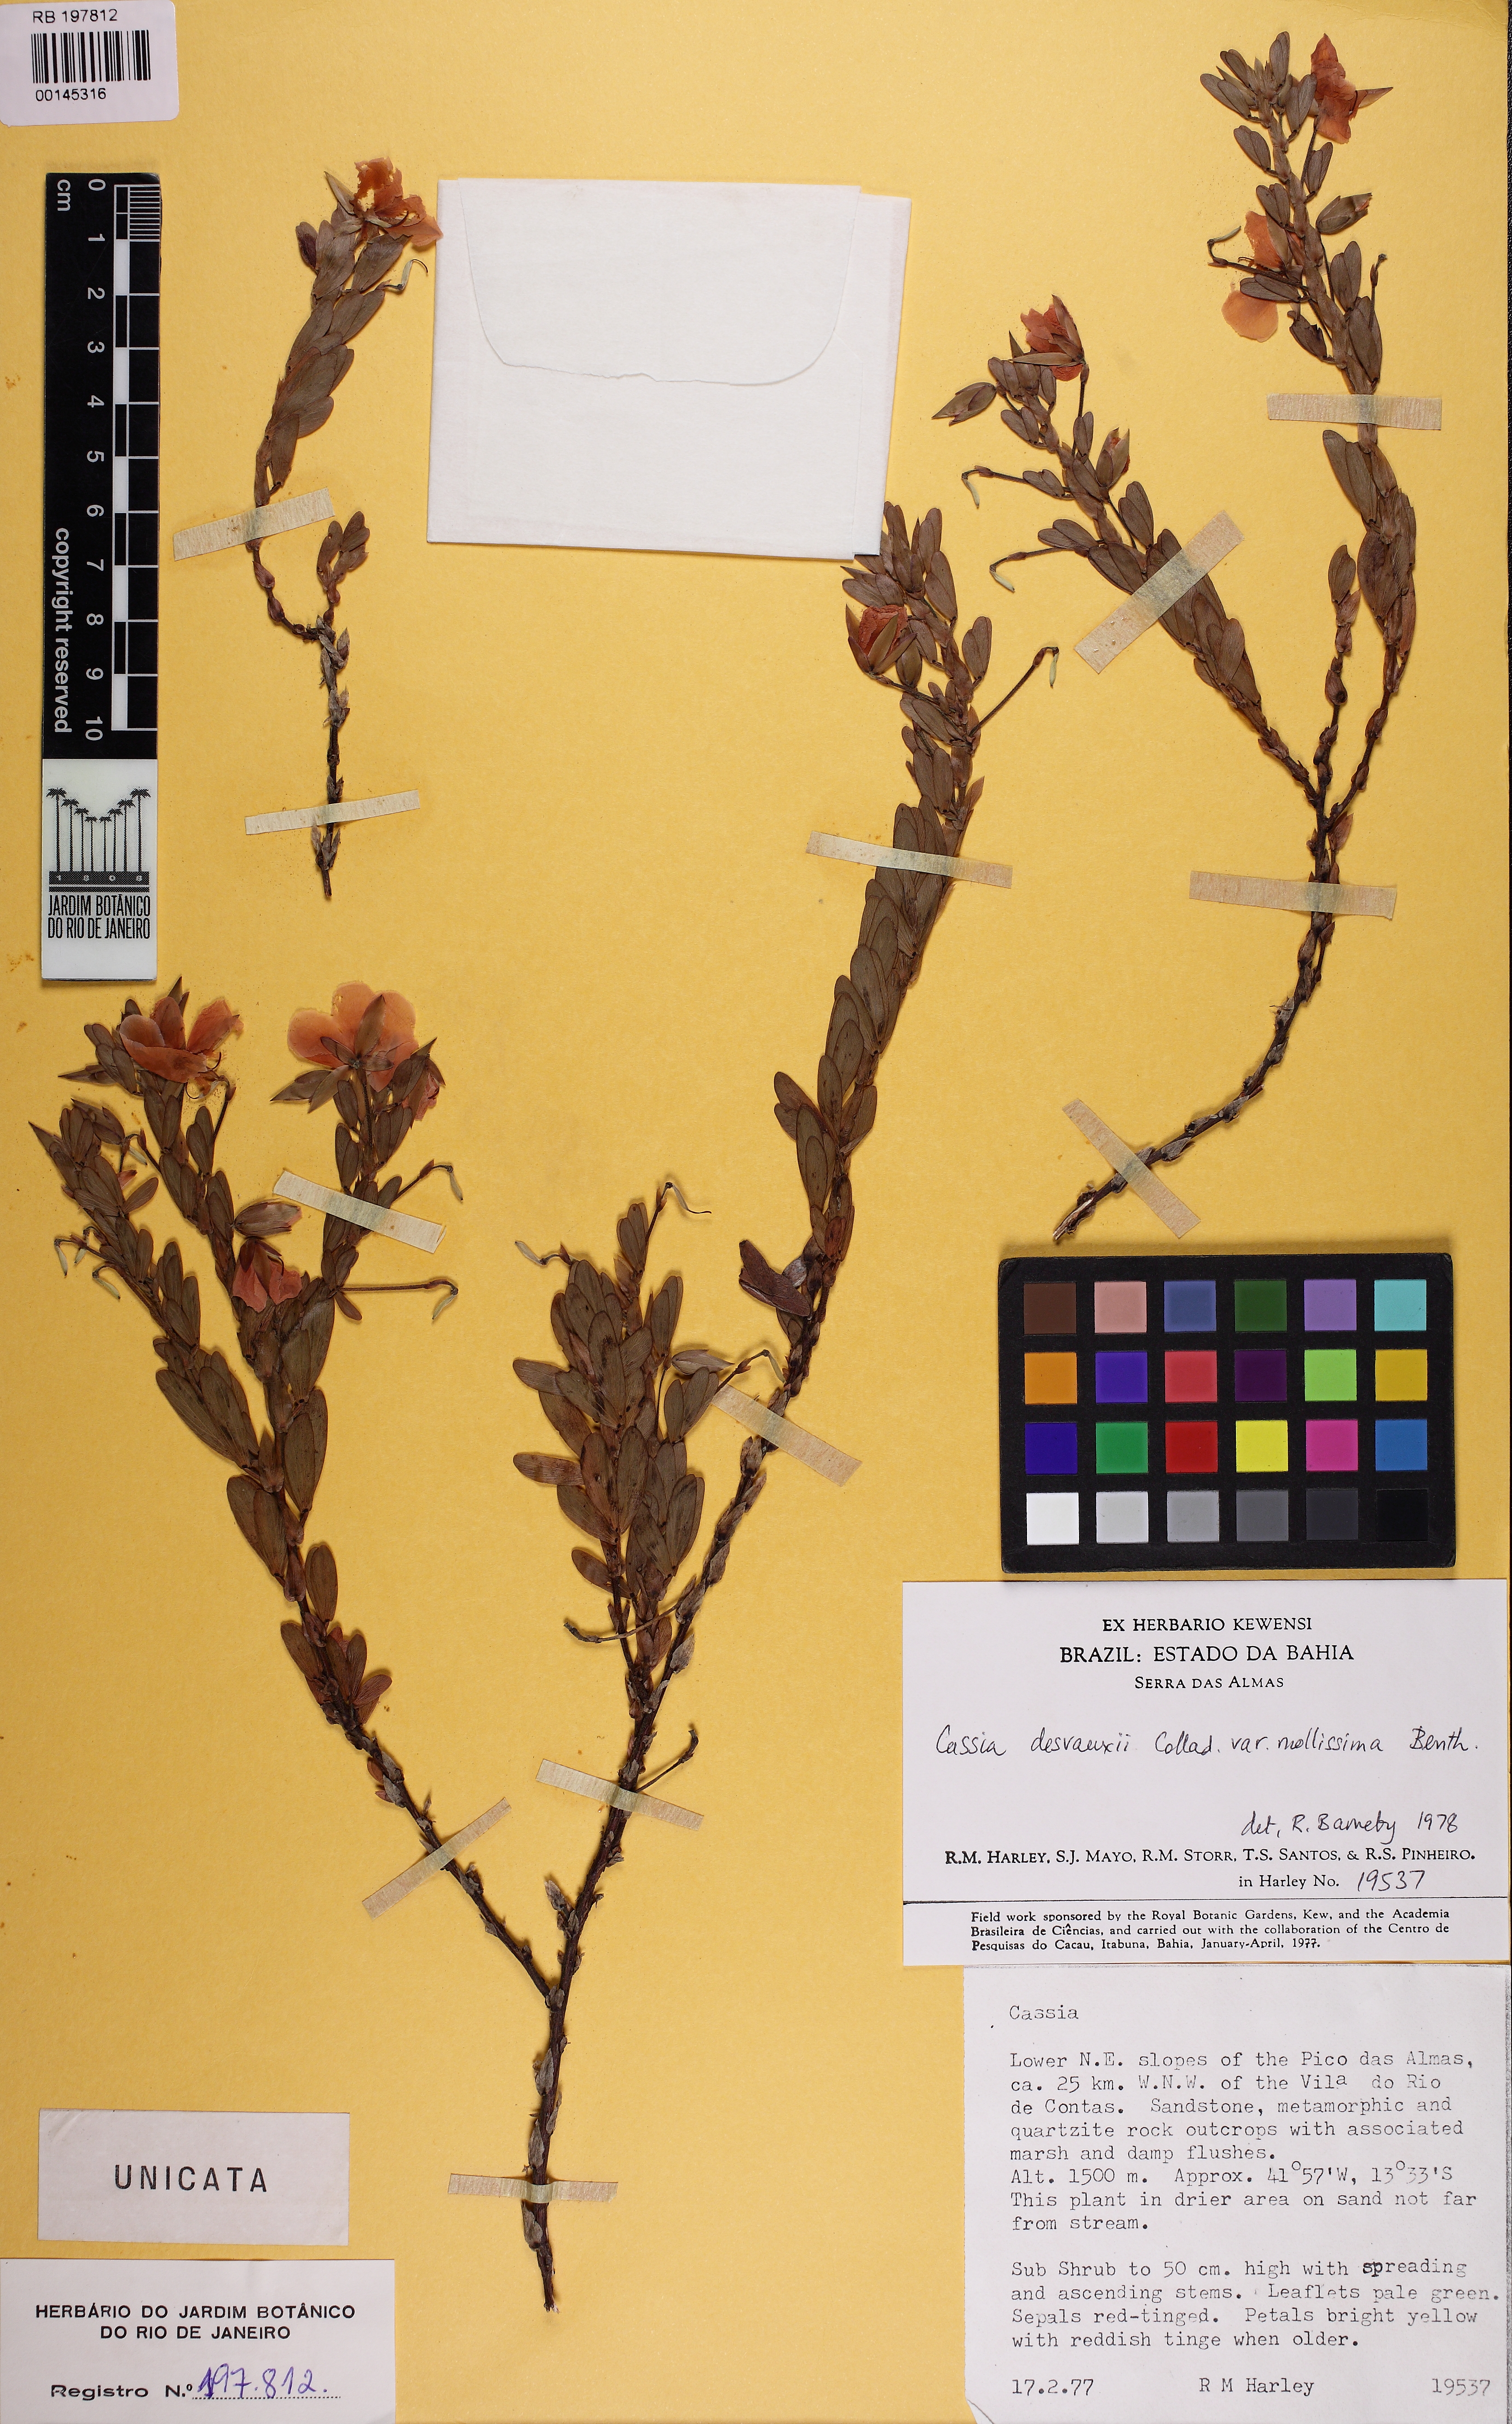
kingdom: Plantae
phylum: Tracheophyta
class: Magnoliopsida
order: Fabales
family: Fabaceae
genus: Chamaecrista
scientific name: Chamaecrista desvauxii
